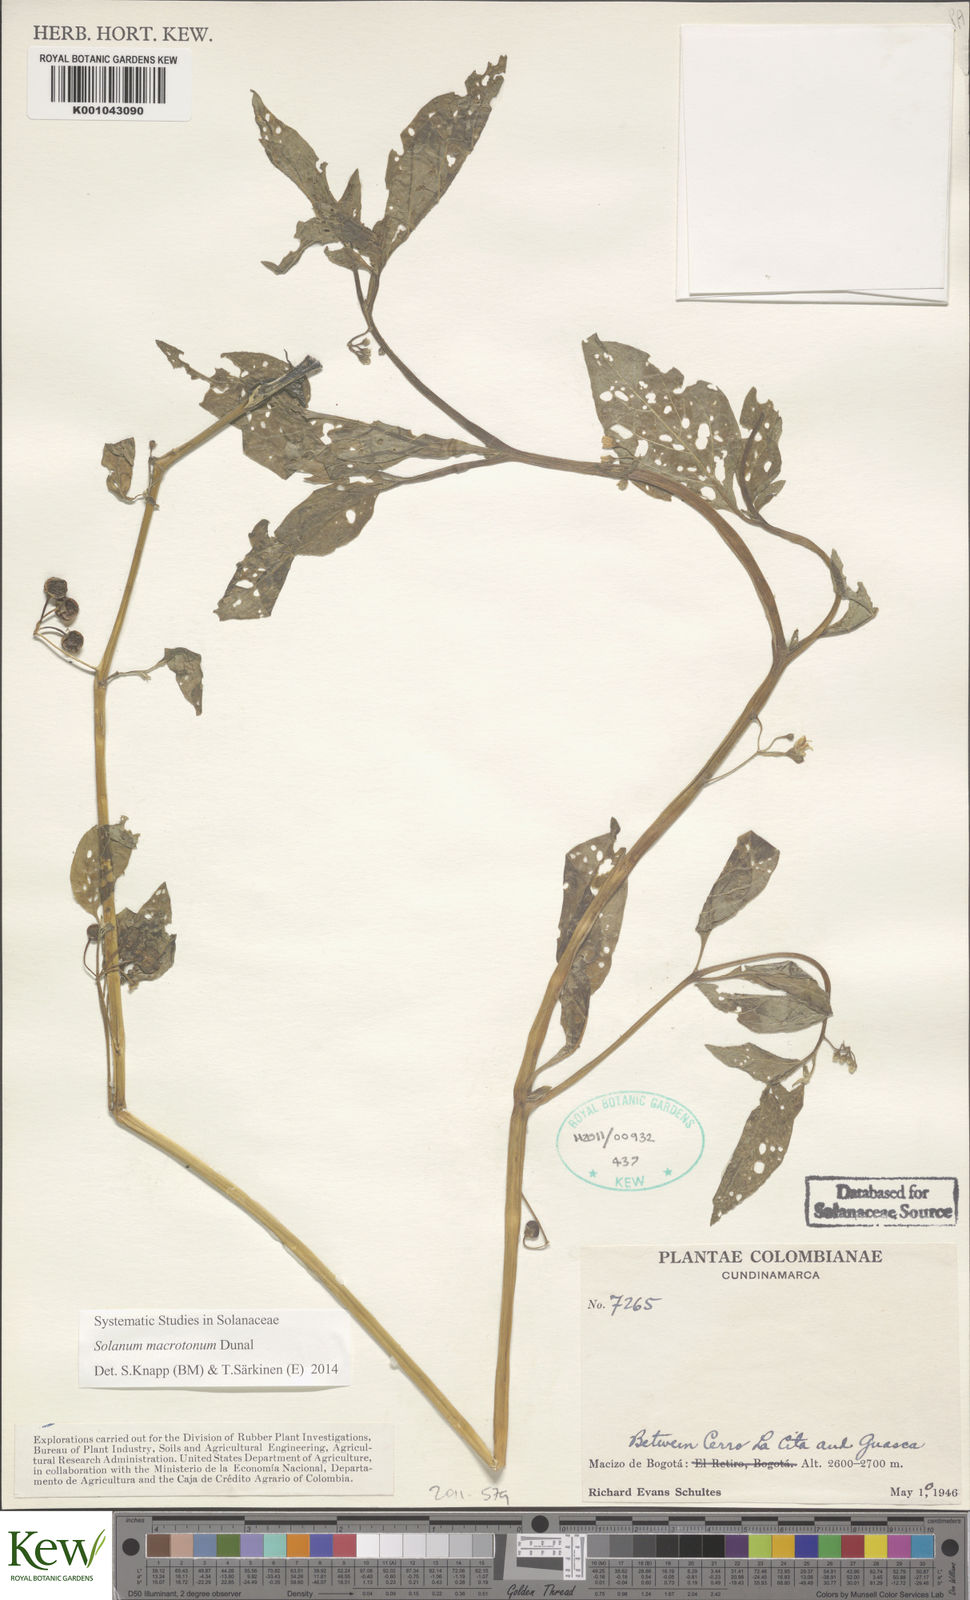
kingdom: Plantae
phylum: Tracheophyta
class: Magnoliopsida
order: Solanales
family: Solanaceae
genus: Solanum
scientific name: Solanum macrotonum
